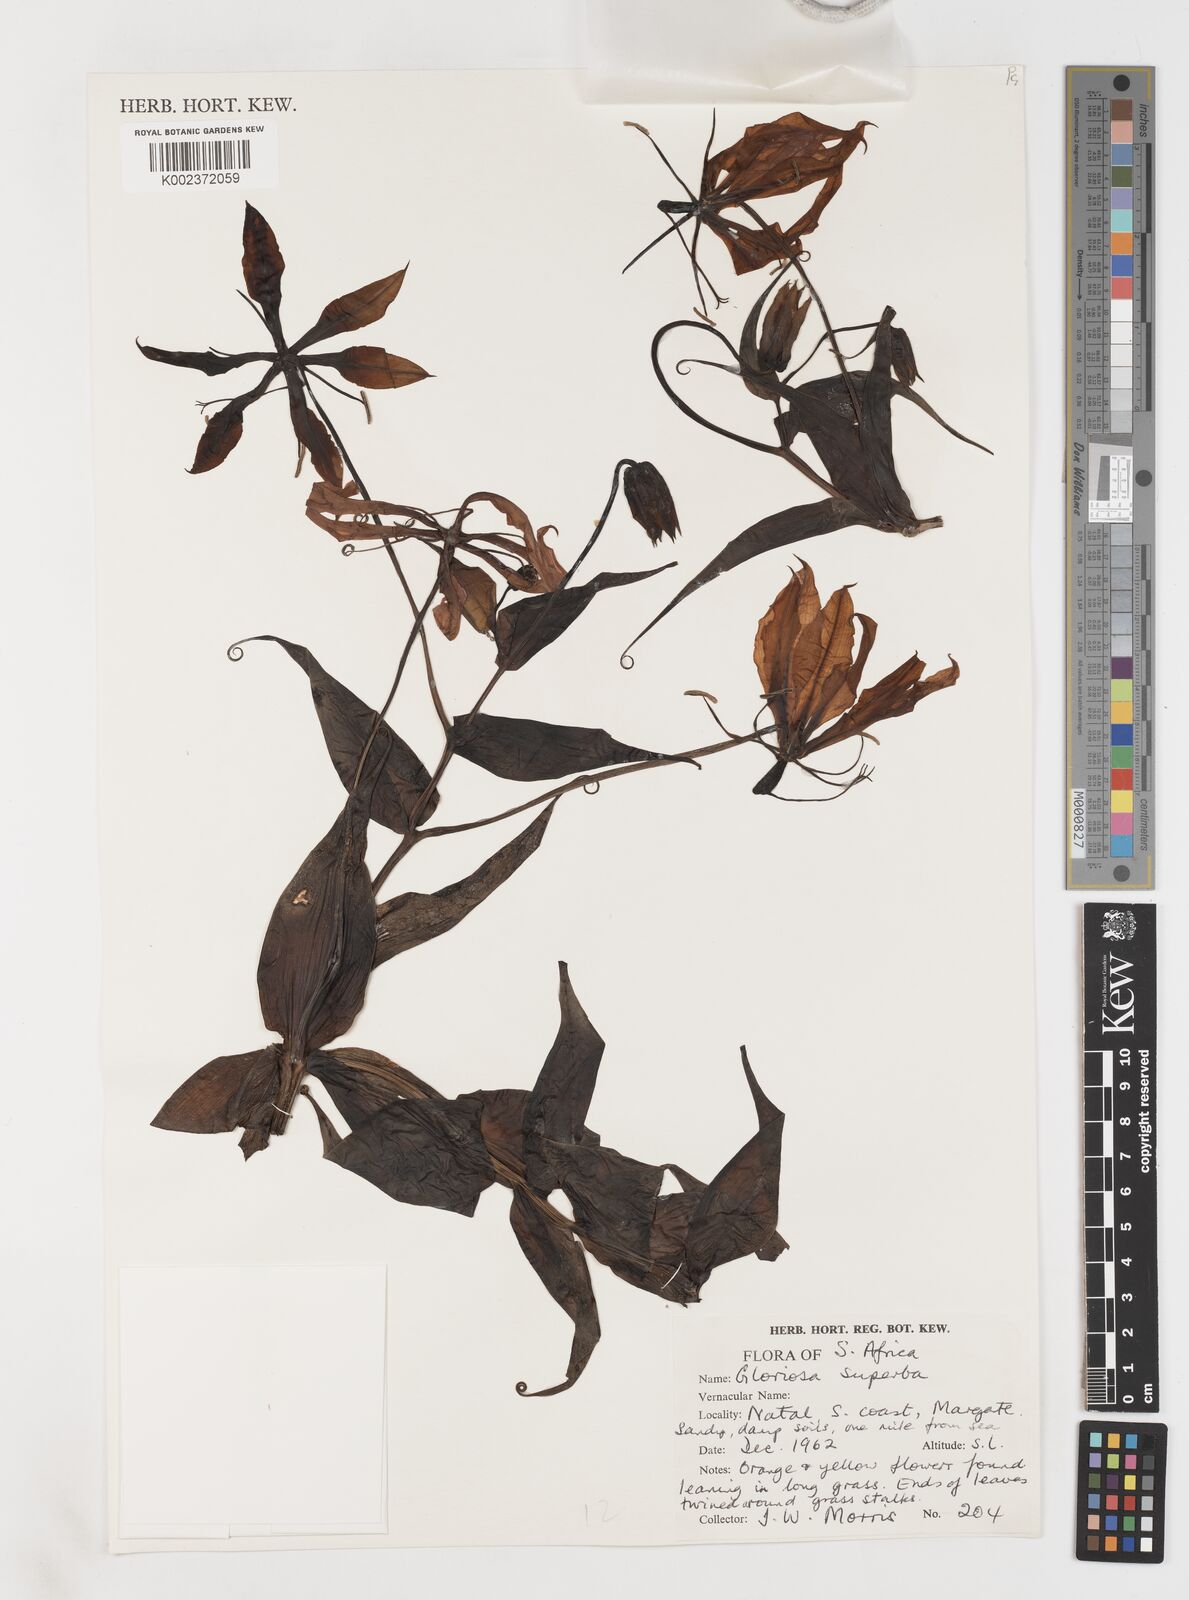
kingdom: Plantae
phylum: Tracheophyta
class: Liliopsida
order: Liliales
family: Colchicaceae
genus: Gloriosa
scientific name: Gloriosa simplex
